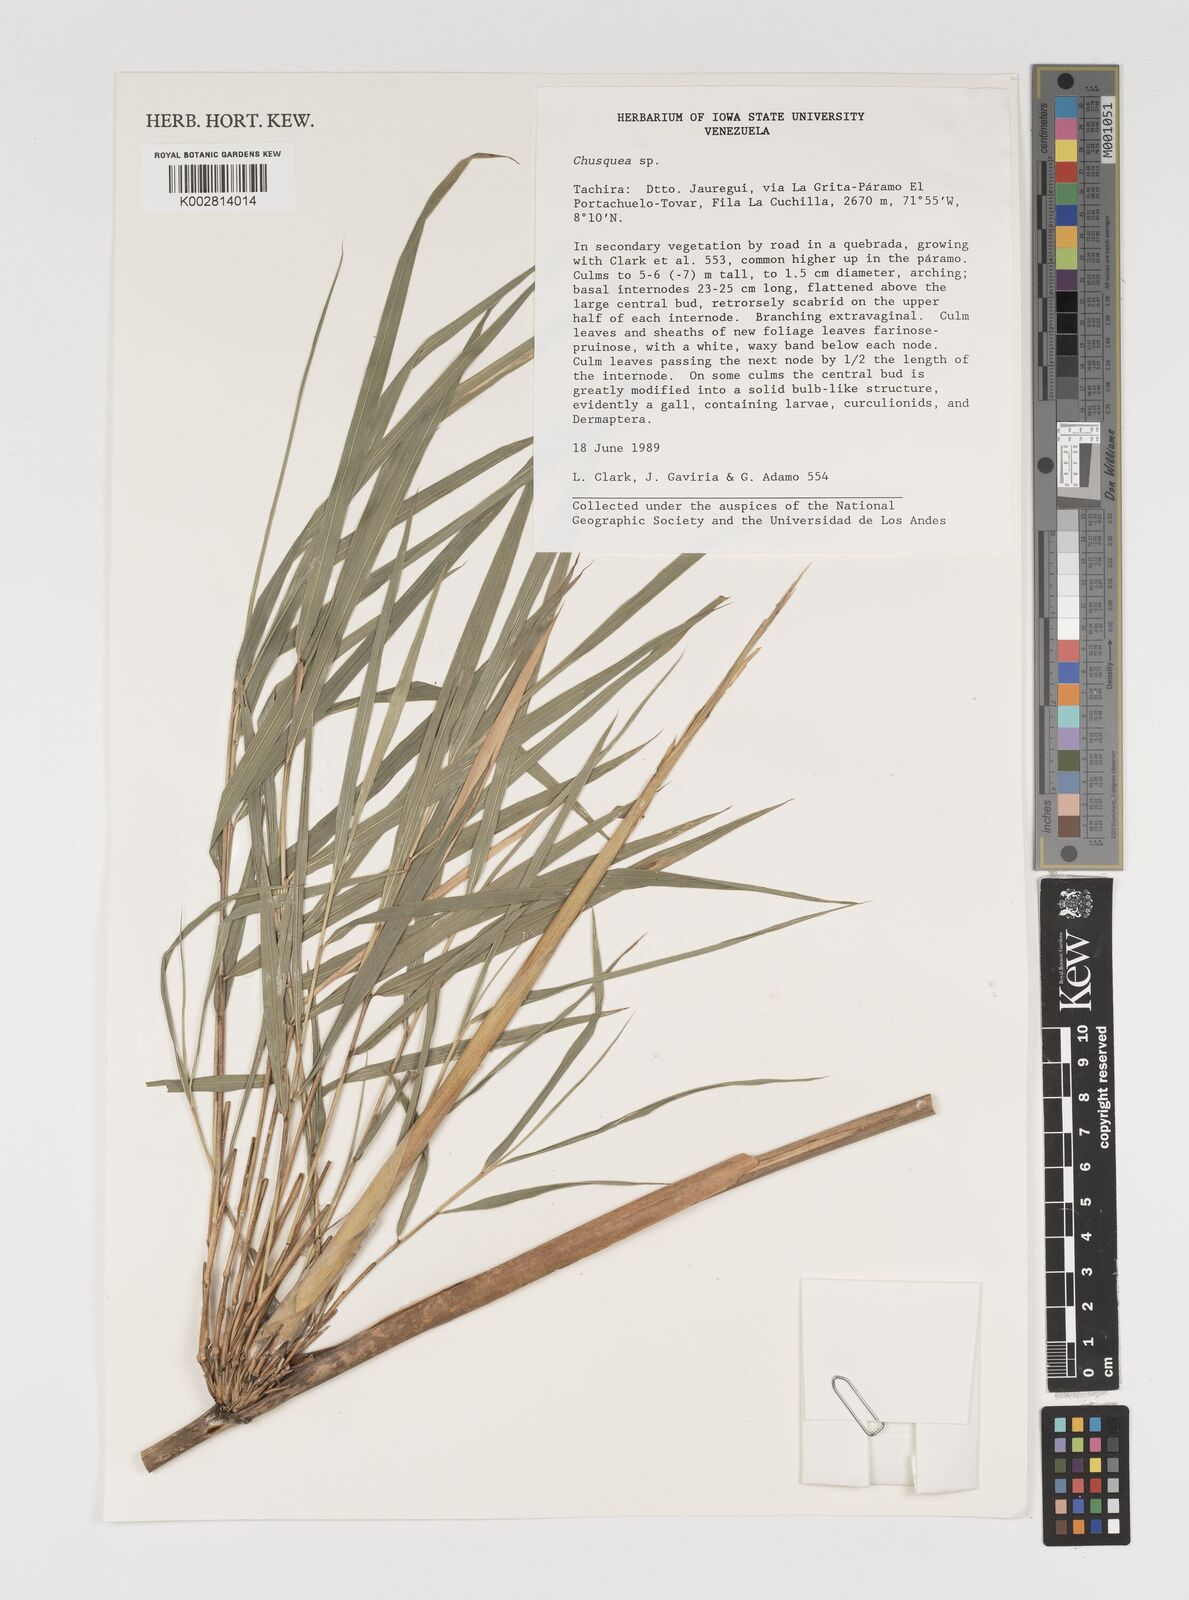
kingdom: Plantae
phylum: Tracheophyta
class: Liliopsida
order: Poales
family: Poaceae
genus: Chusquea
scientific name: Chusquea
